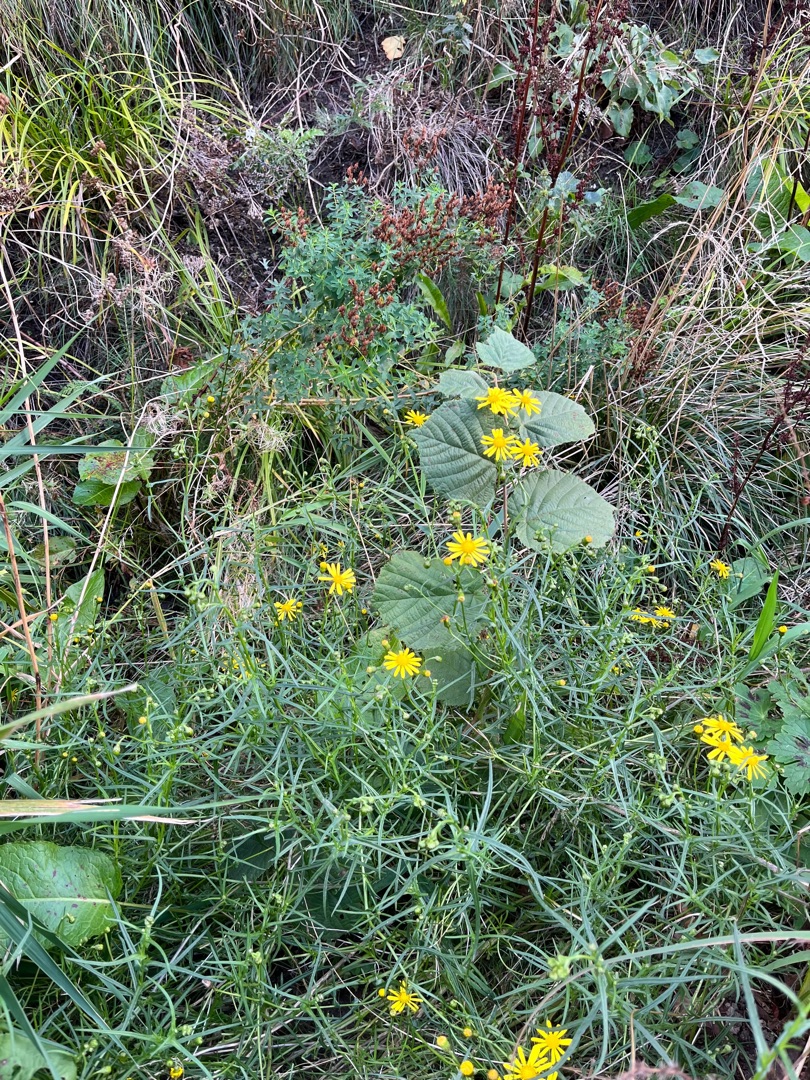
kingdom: Plantae
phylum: Tracheophyta
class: Magnoliopsida
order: Asterales
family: Asteraceae
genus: Senecio
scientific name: Senecio inaequidens
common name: Smalbladet brandbæger
